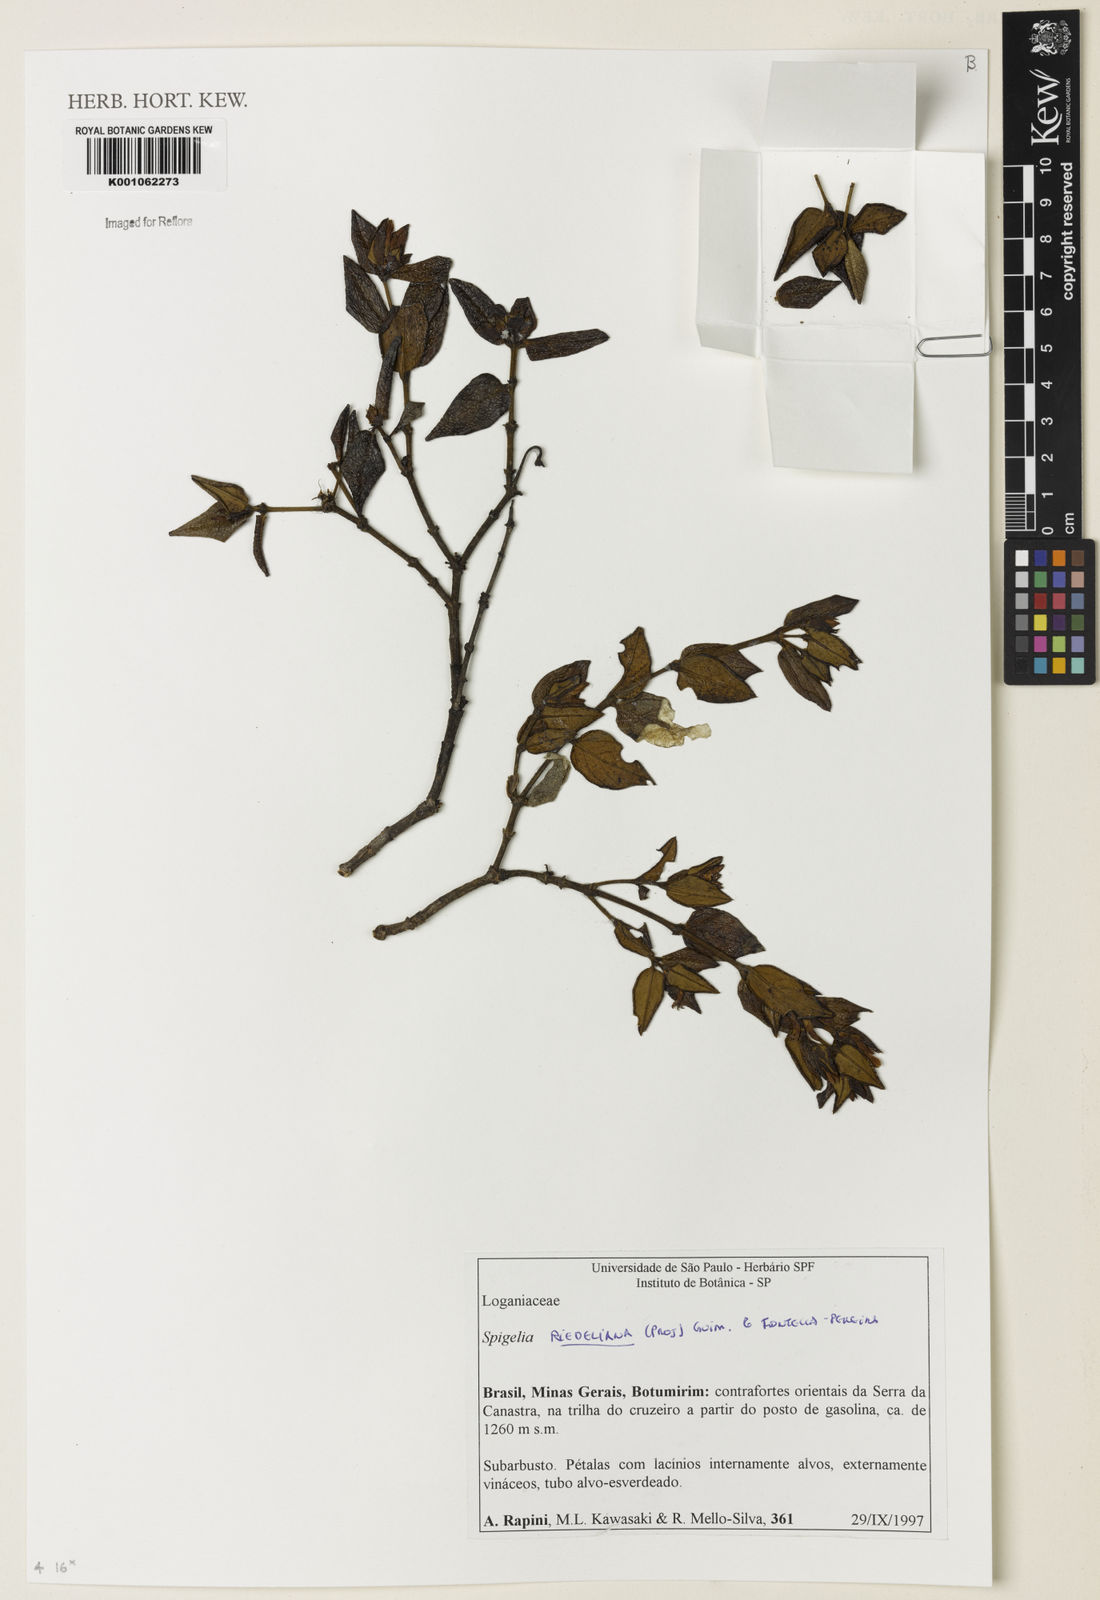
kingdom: Plantae
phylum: Tracheophyta
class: Magnoliopsida
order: Gentianales
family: Loganiaceae
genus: Spigelia
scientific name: Spigelia riedeliana
